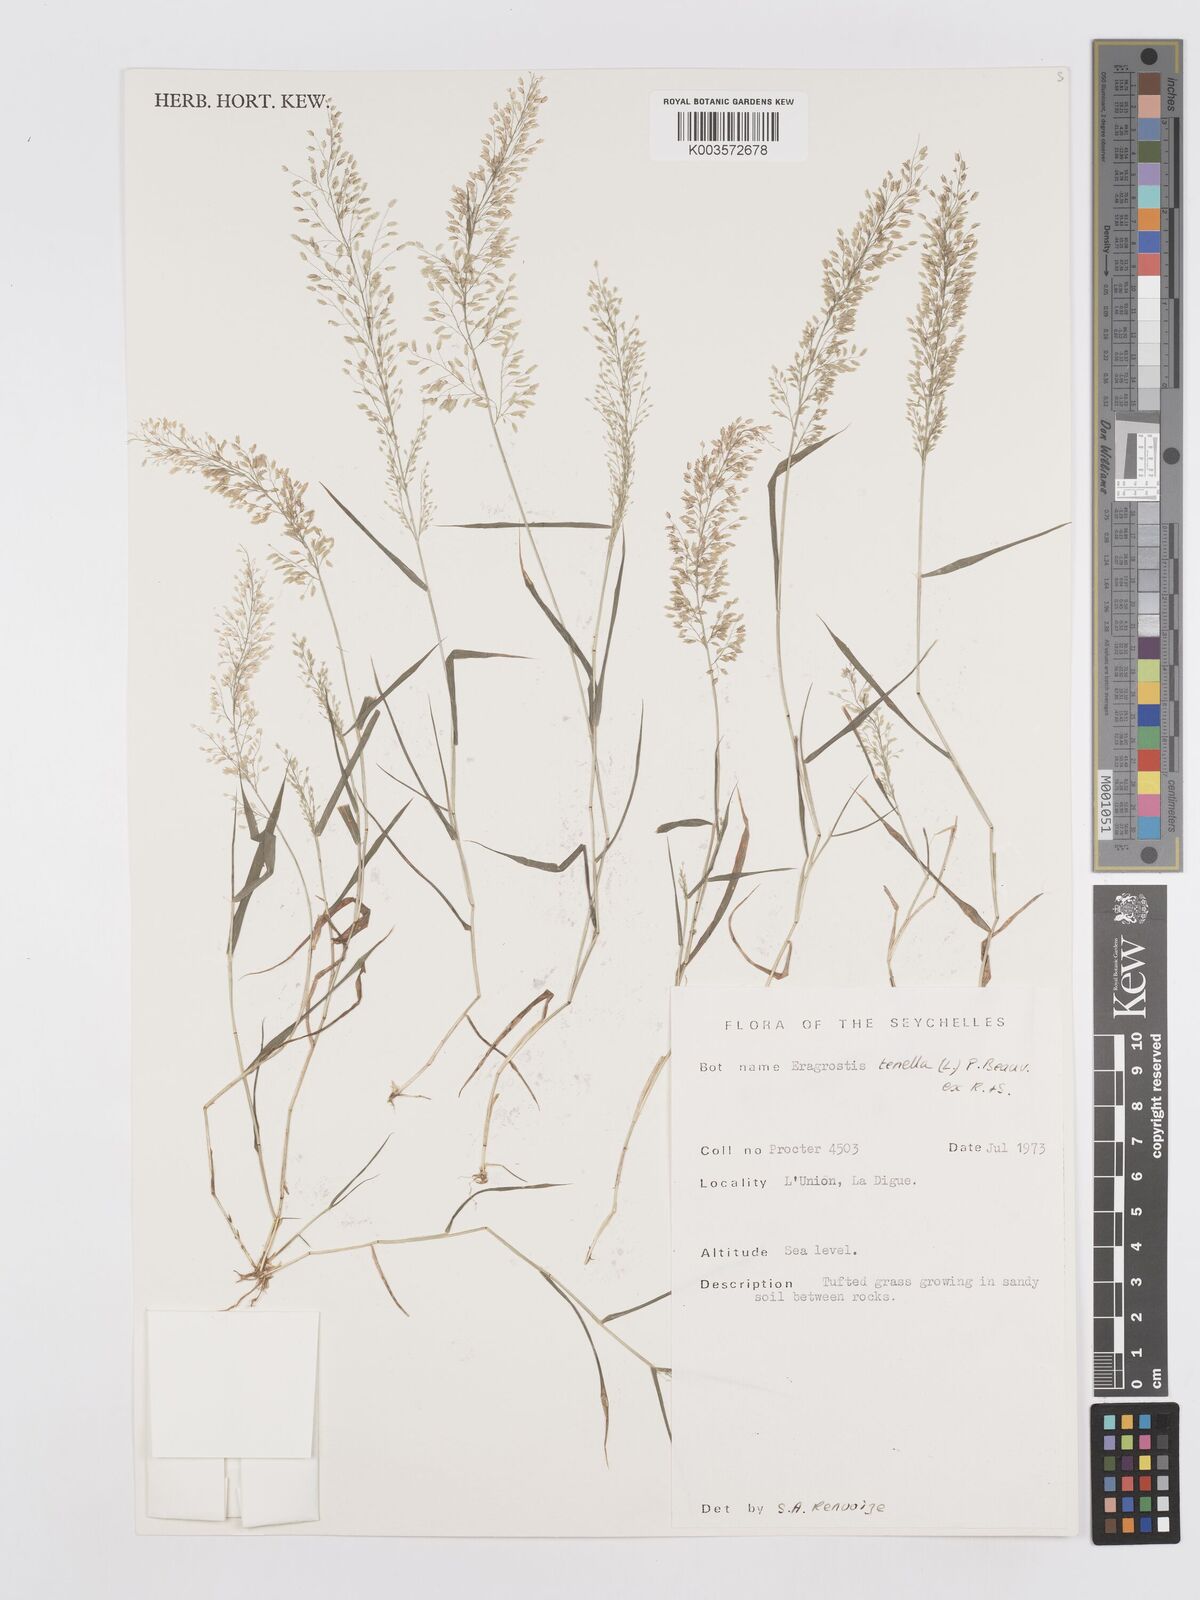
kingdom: Plantae
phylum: Tracheophyta
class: Liliopsida
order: Poales
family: Poaceae
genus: Eragrostis
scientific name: Eragrostis tenella
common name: Japanese lovegrass
